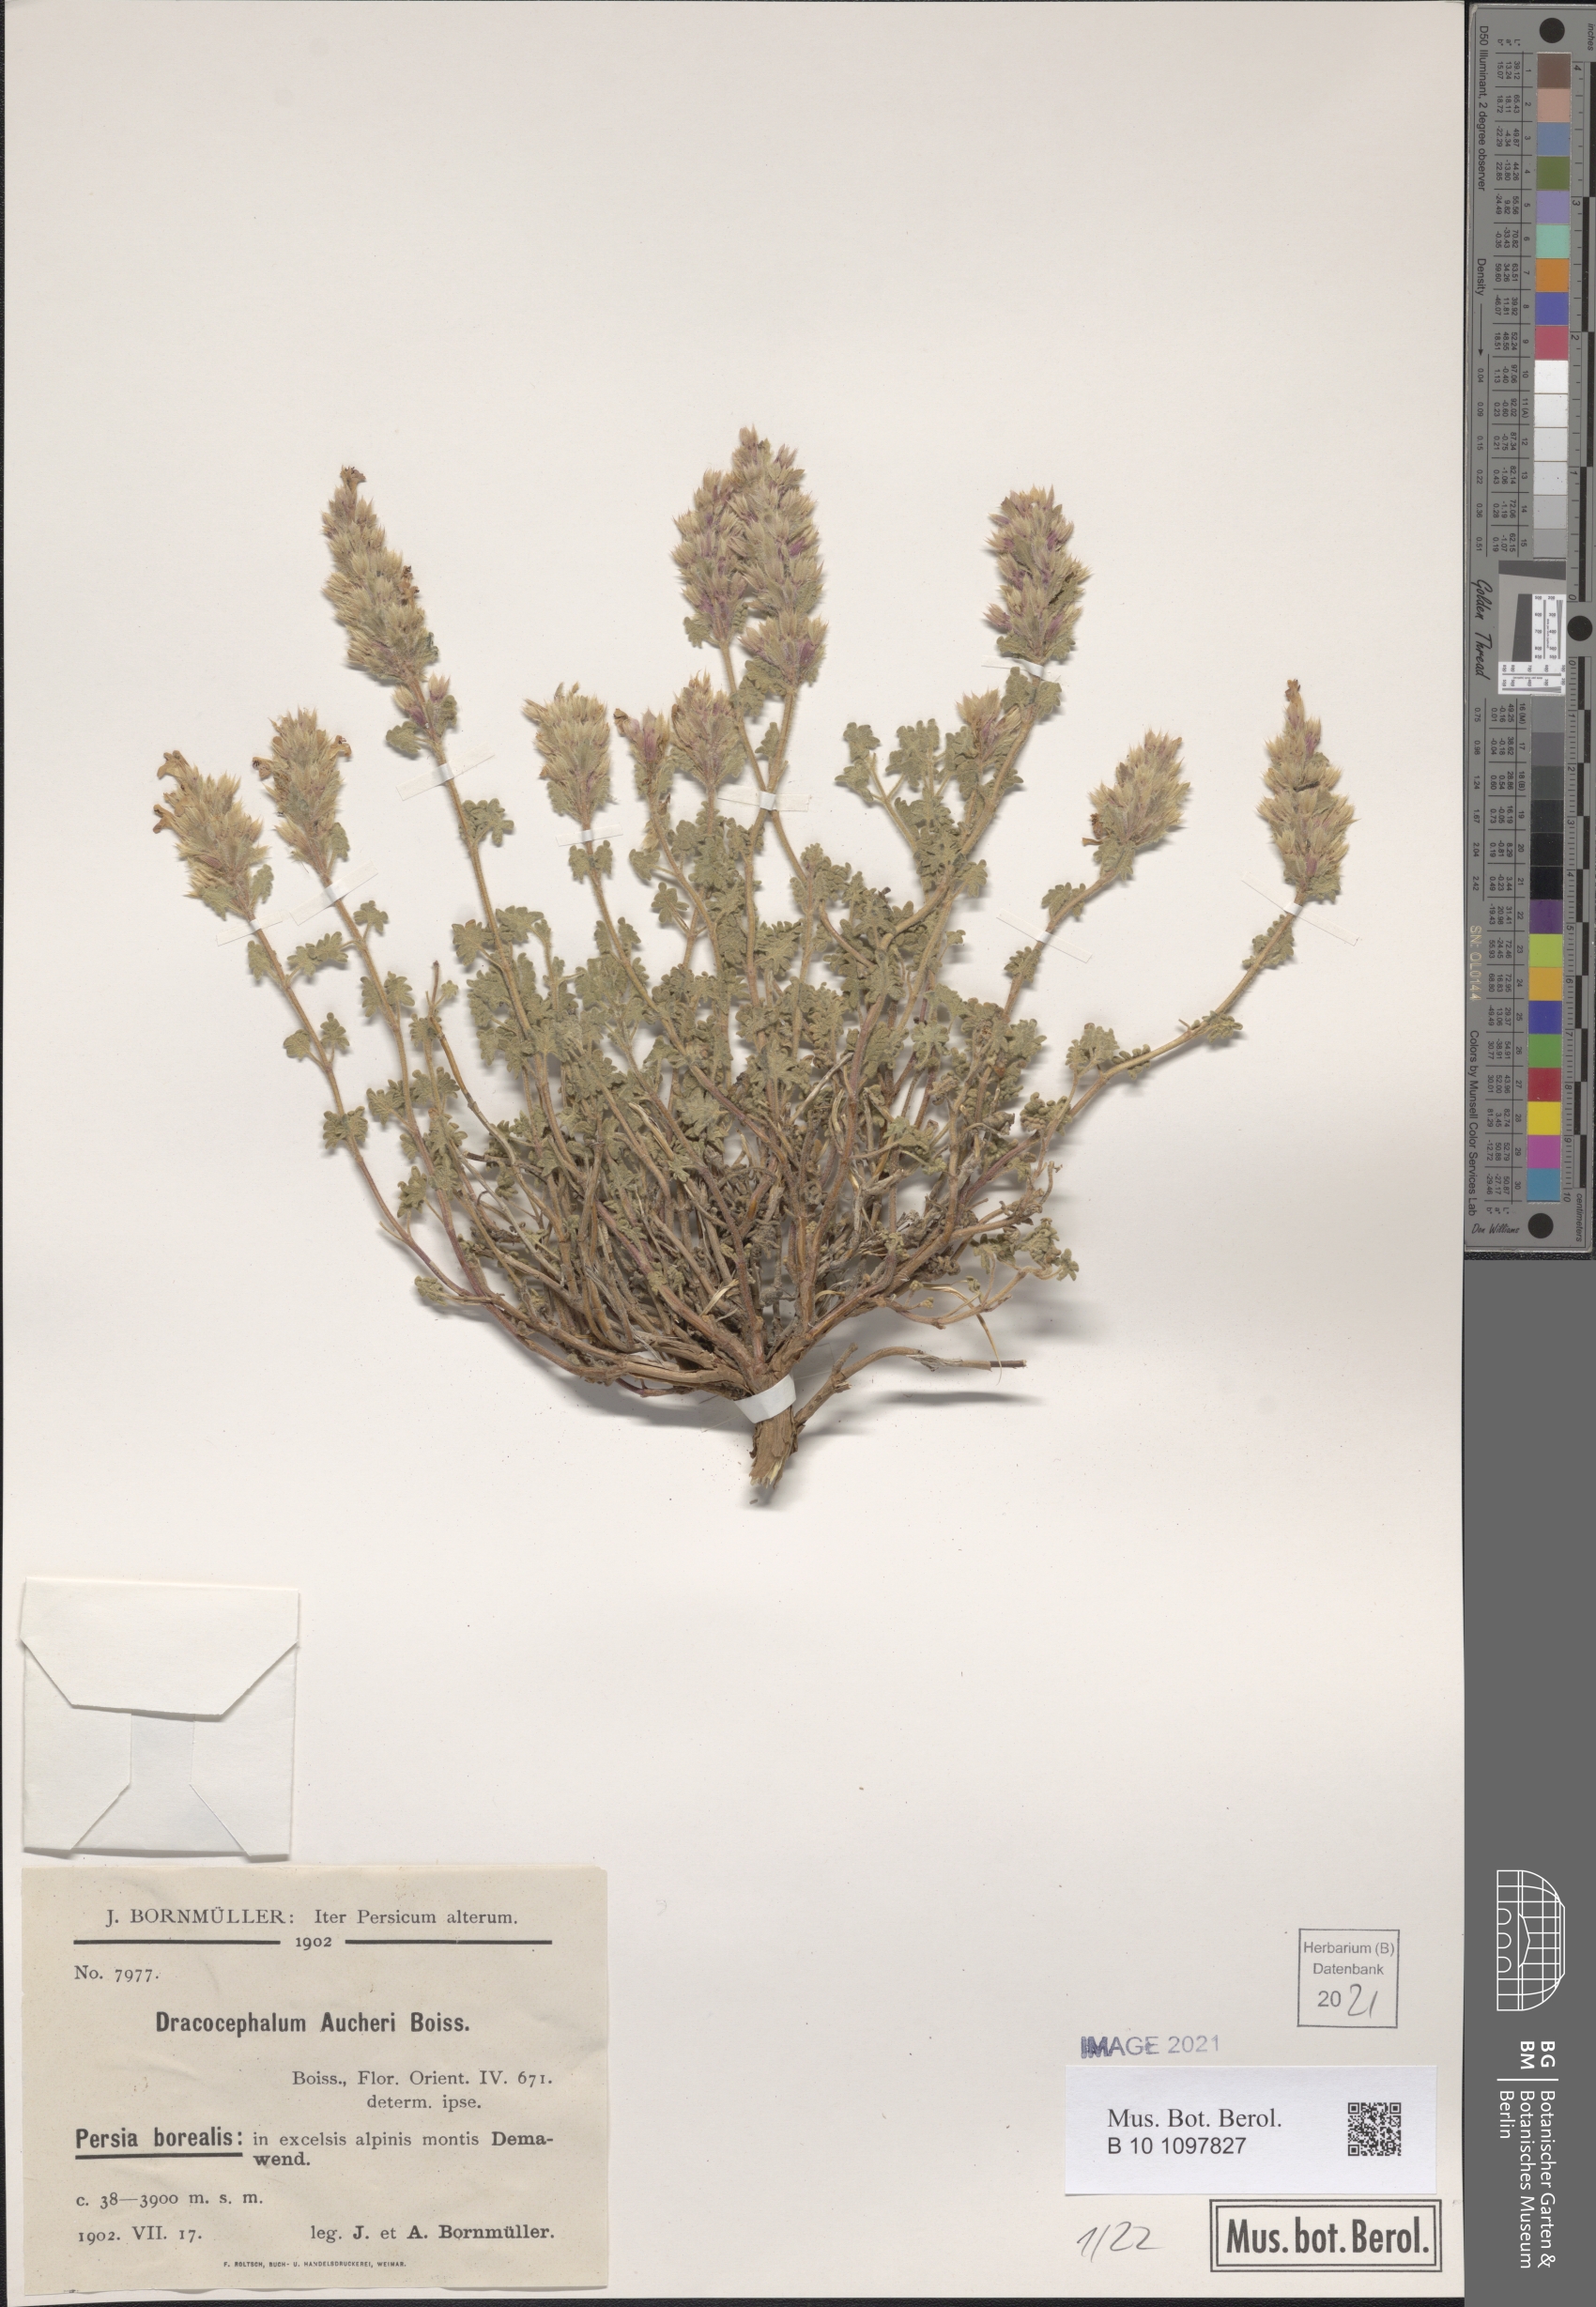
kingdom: Plantae
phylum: Tracheophyta
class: Magnoliopsida
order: Lamiales
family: Lamiaceae
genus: Dracocephalum
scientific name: Dracocephalum aucheri
